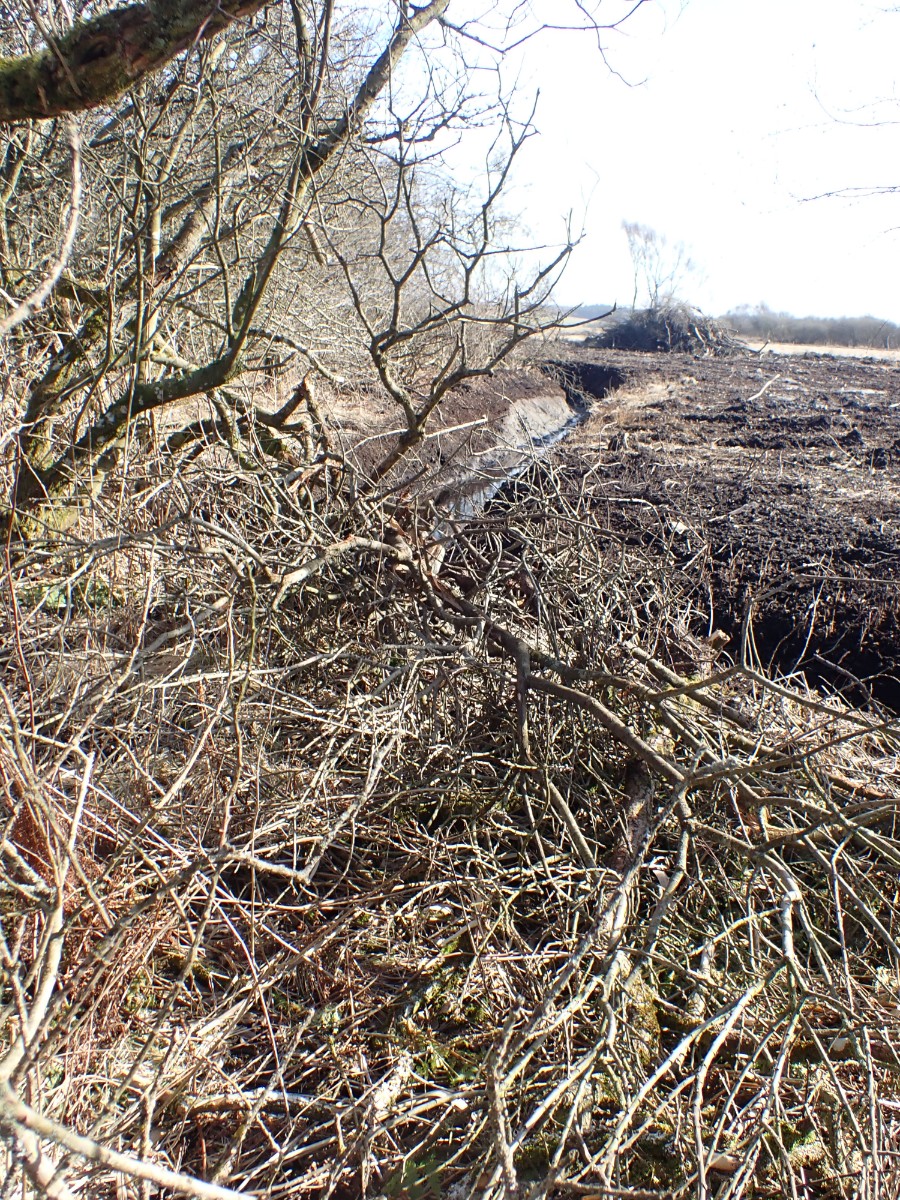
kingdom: Fungi
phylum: Basidiomycota
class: Agaricomycetes
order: Hymenochaetales
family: Hymenochaetaceae
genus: Hydnoporia
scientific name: Hydnoporia tabacina
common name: tobaksbrun ruslædersvamp
